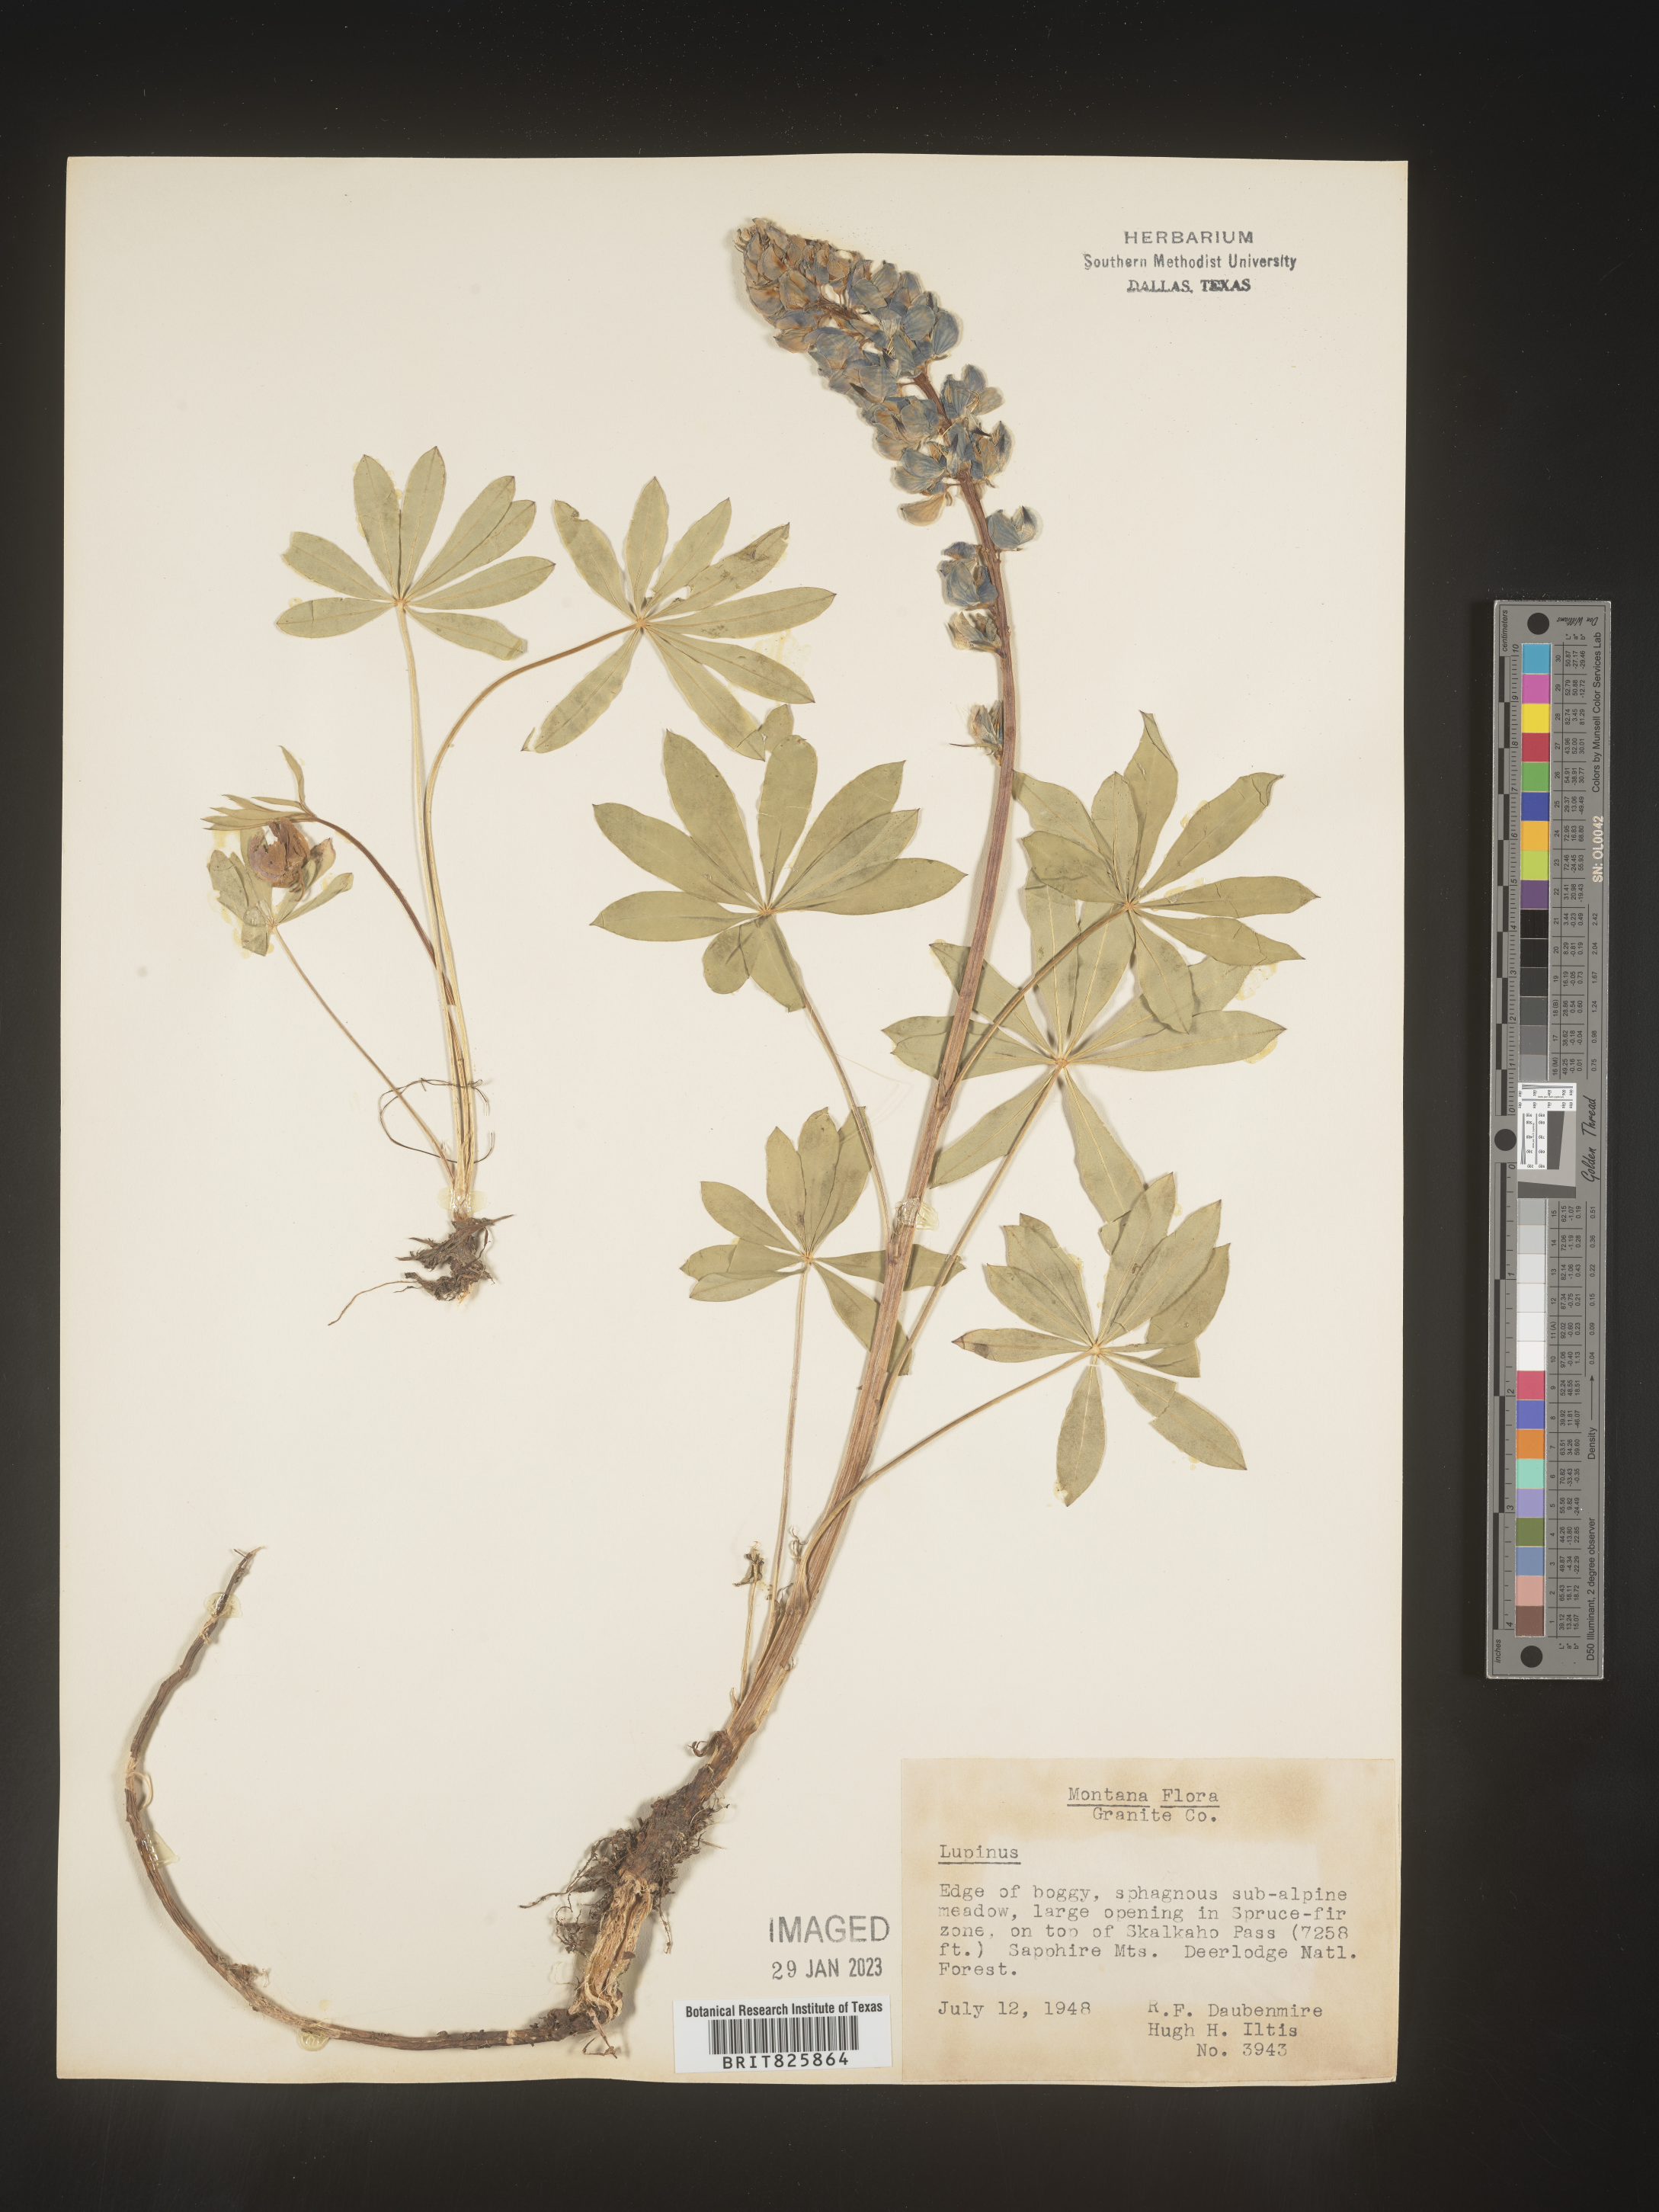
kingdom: Plantae
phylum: Tracheophyta
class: Magnoliopsida
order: Fabales
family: Fabaceae
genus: Lupinus
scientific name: Lupinus
